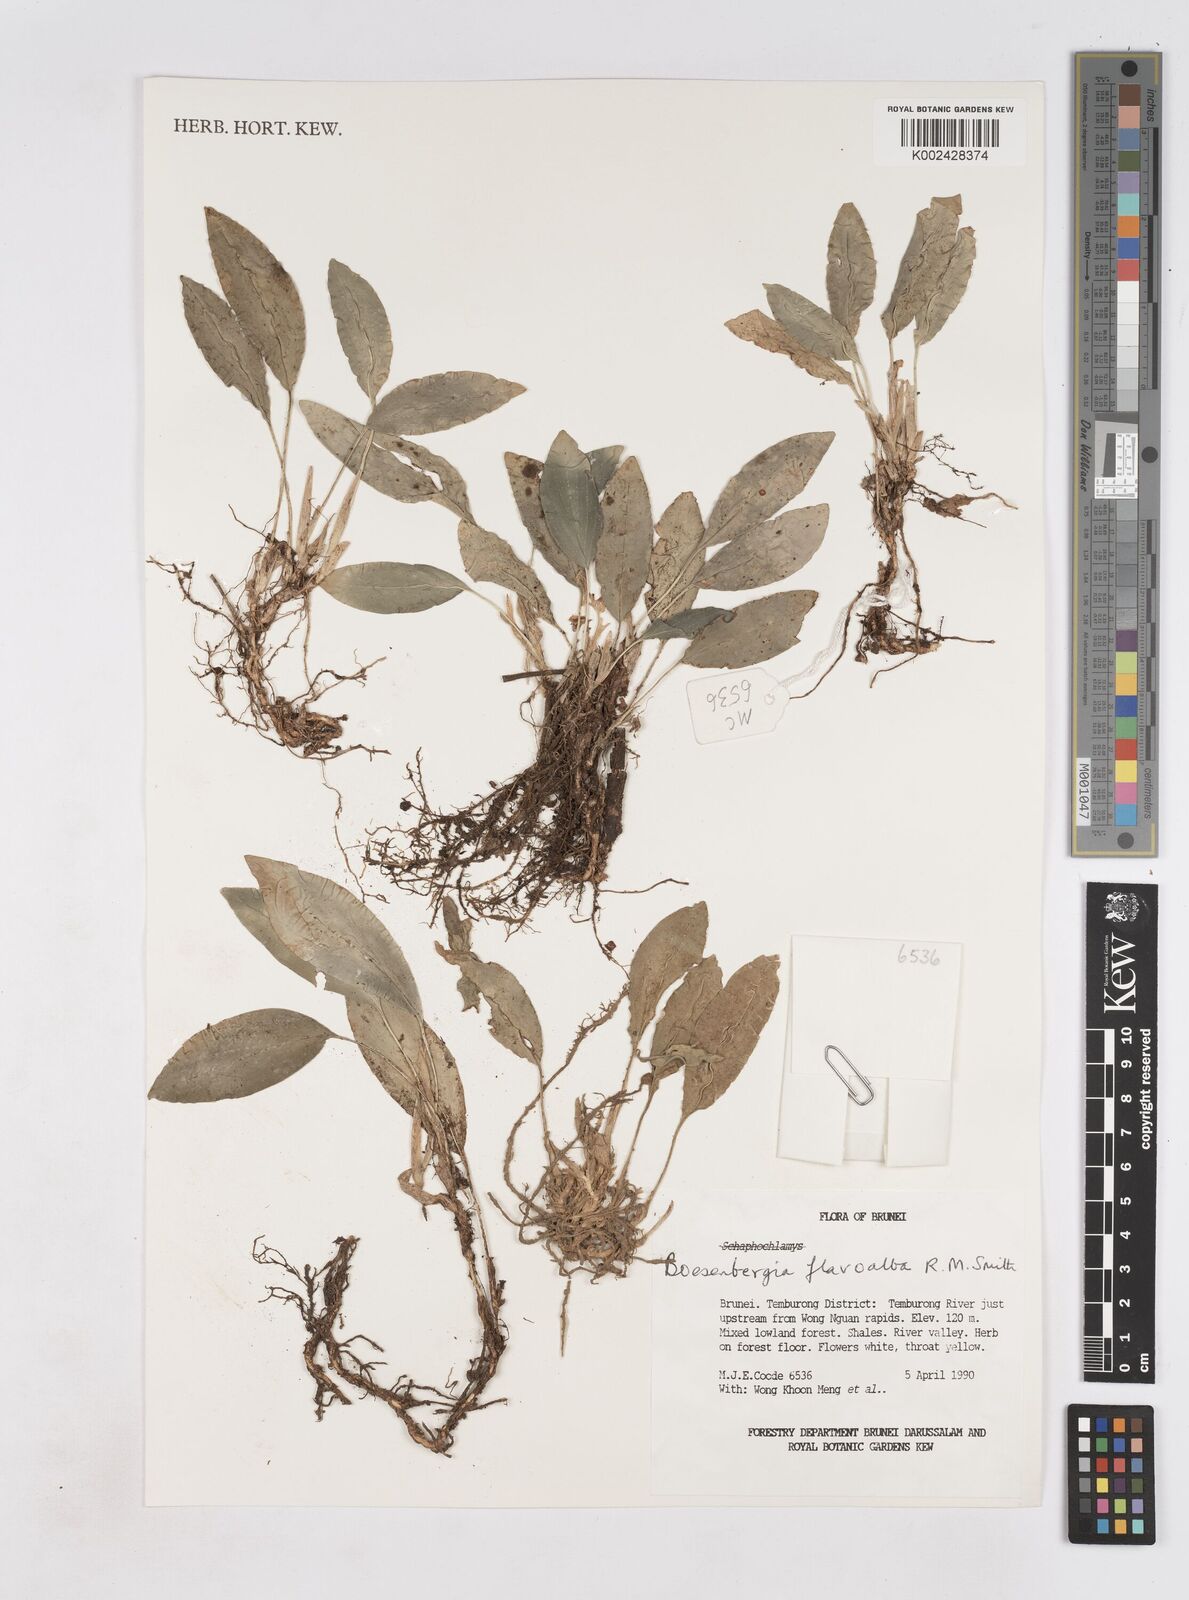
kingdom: Plantae
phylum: Tracheophyta
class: Liliopsida
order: Zingiberales
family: Zingiberaceae
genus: Boesenbergia
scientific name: Boesenbergia flavoalba
